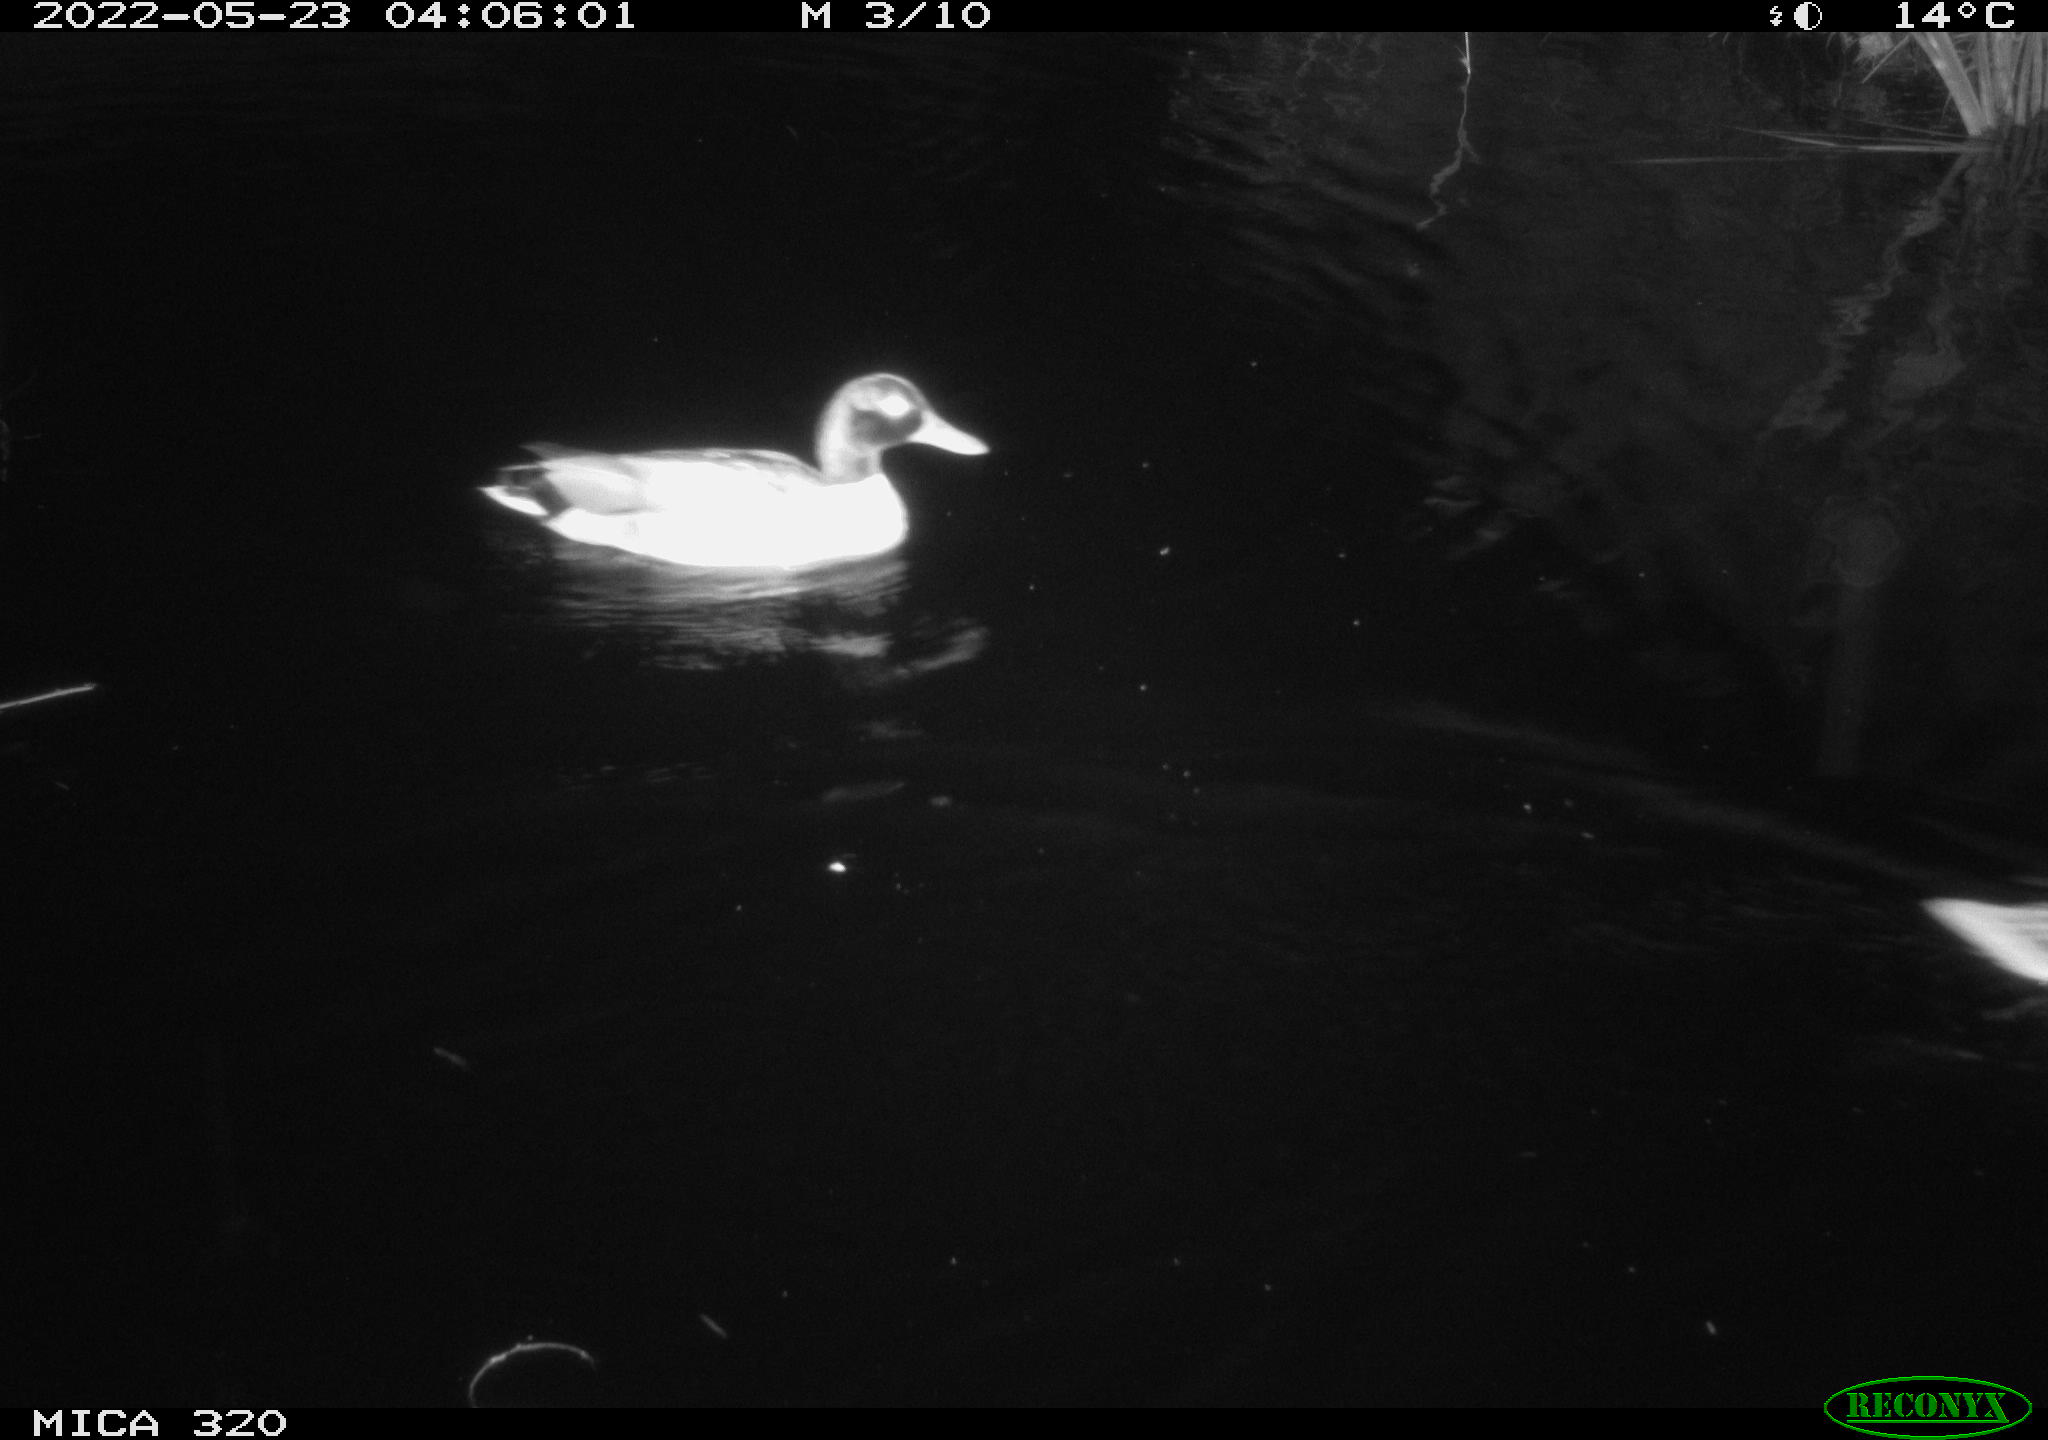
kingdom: Animalia
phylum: Chordata
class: Aves
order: Anseriformes
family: Anatidae
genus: Anas
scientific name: Anas platyrhynchos
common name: Mallard
